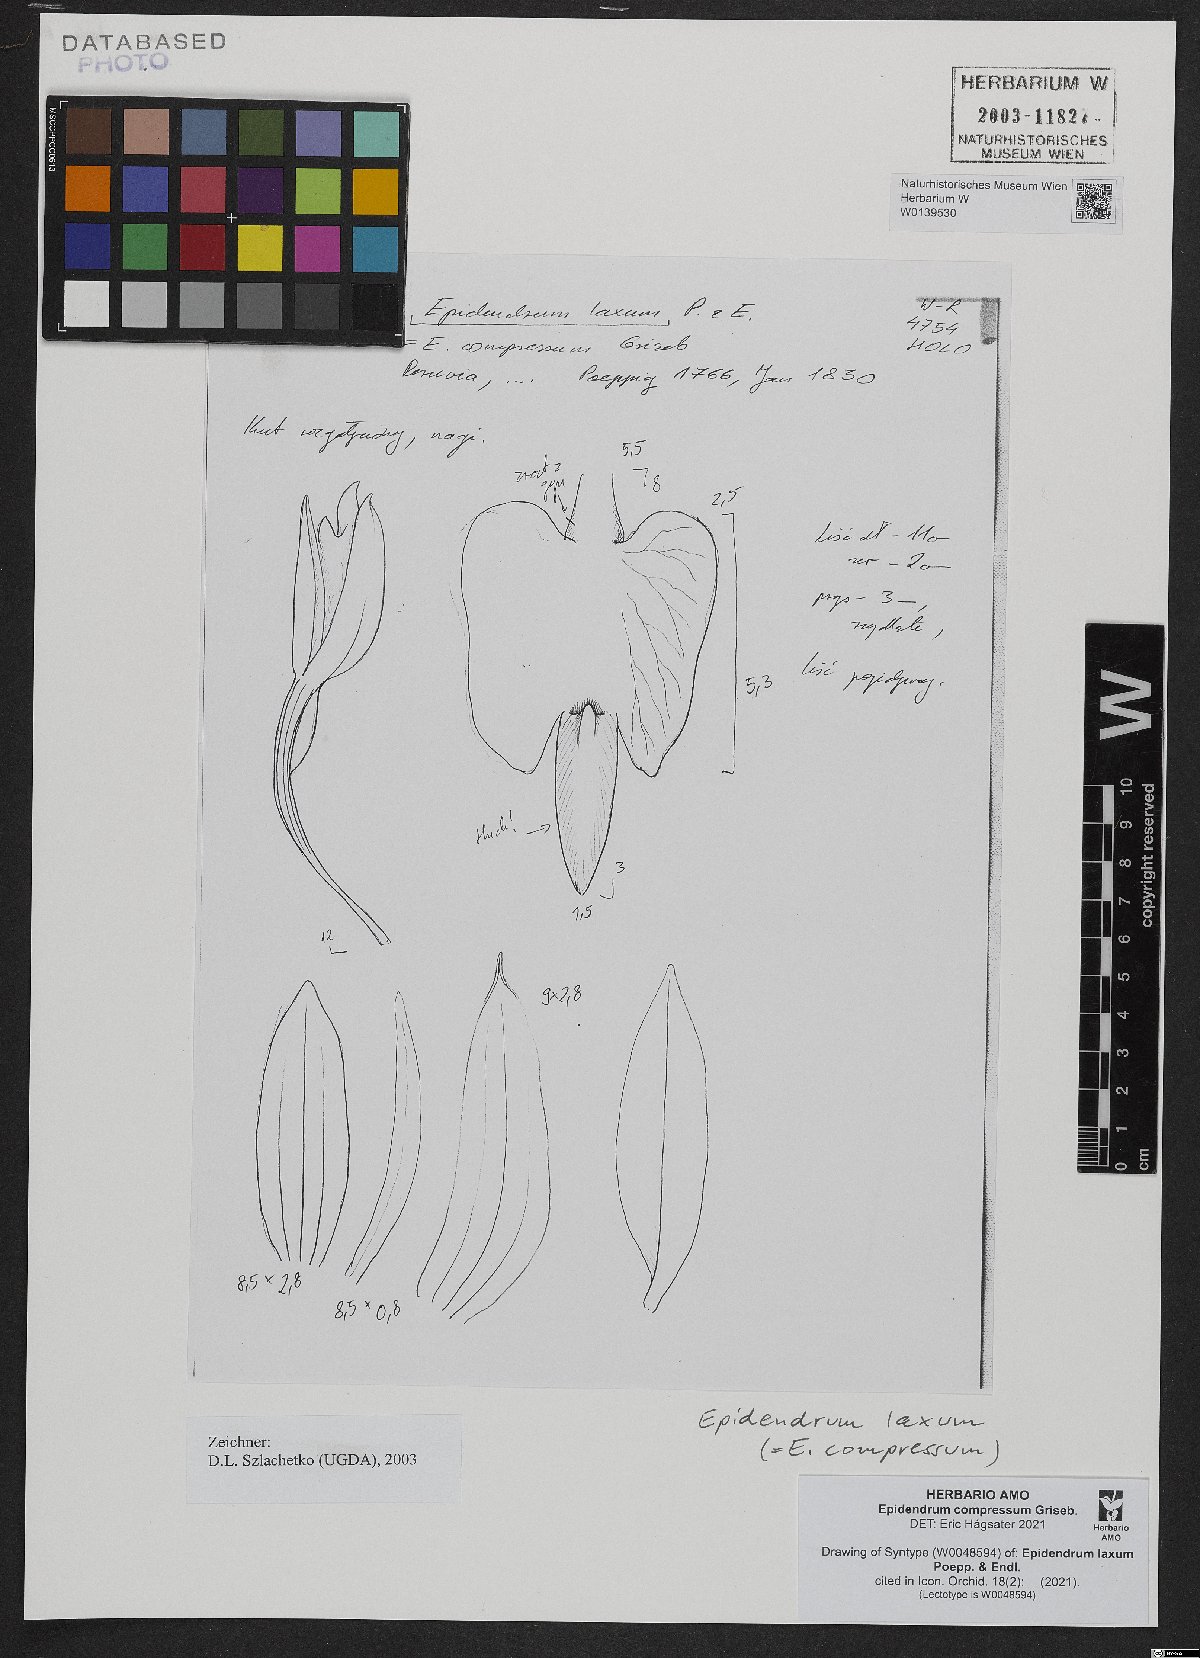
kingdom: Plantae
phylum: Tracheophyta
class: Liliopsida
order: Asparagales
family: Orchidaceae
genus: Epidendrum
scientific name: Epidendrum compressum
